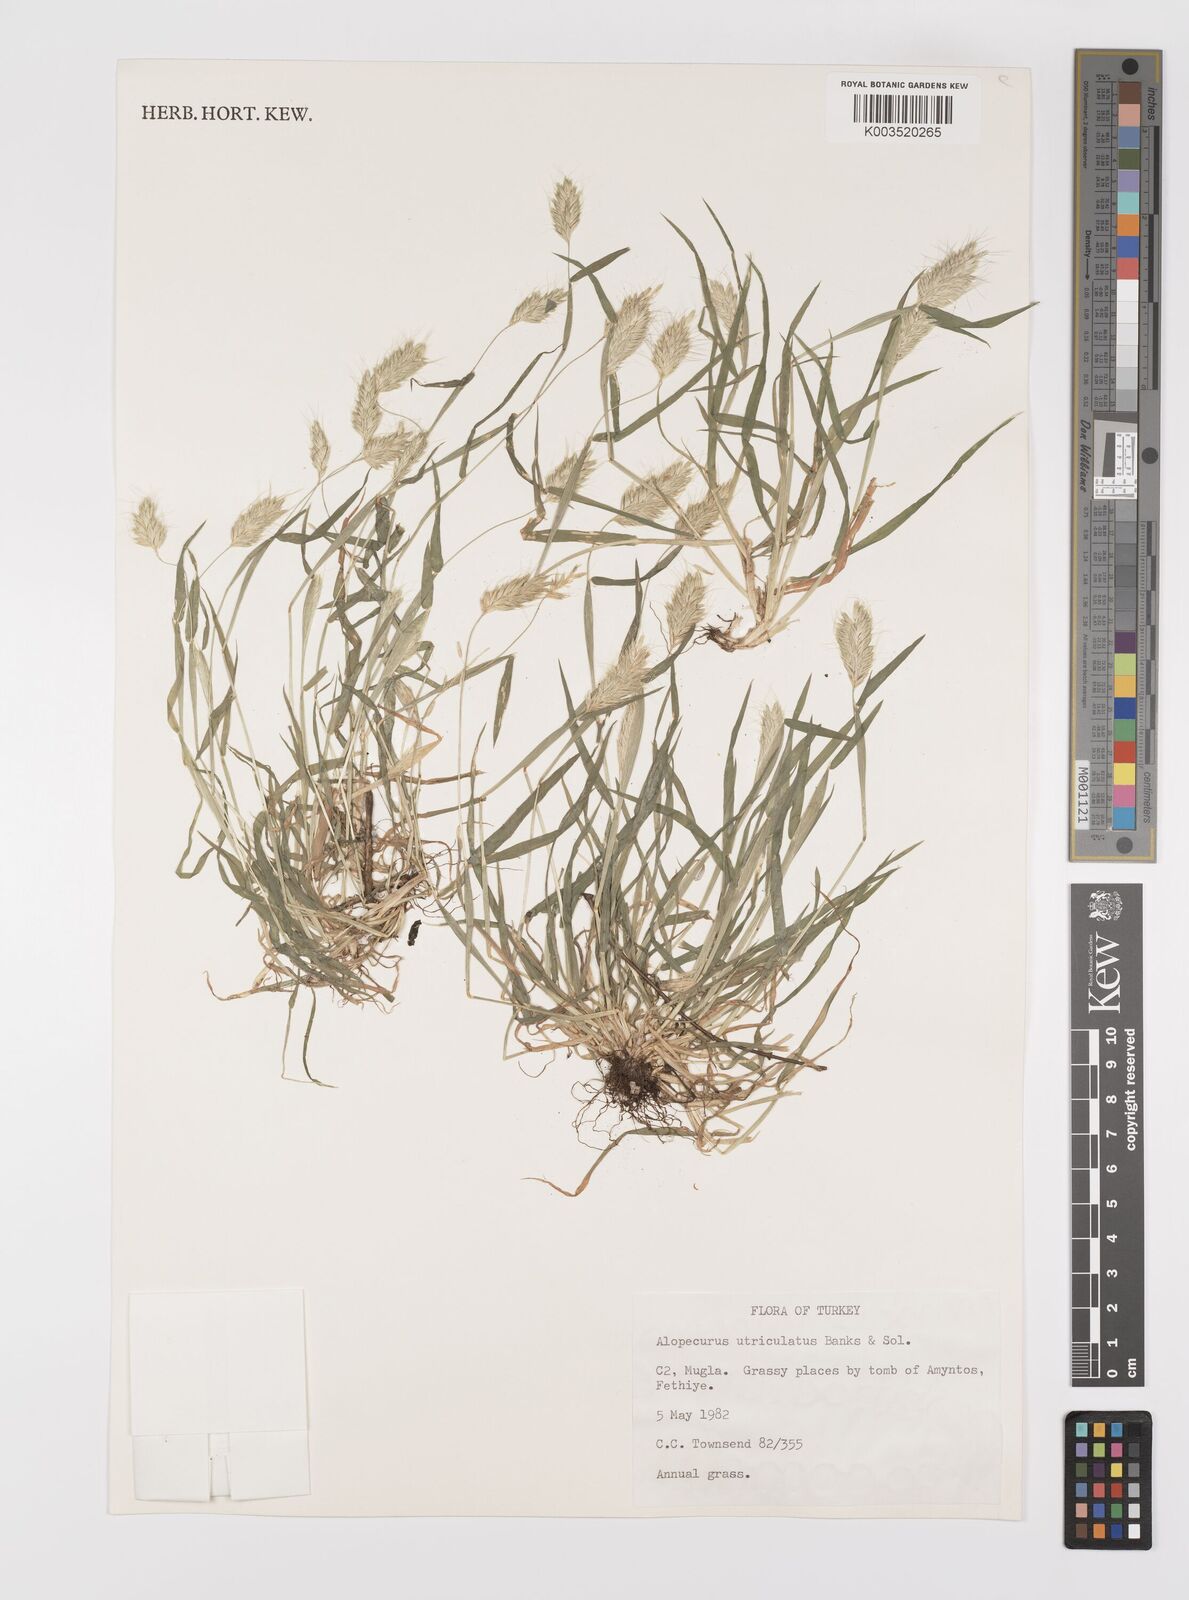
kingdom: Plantae
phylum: Tracheophyta
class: Liliopsida
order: Poales
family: Poaceae
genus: Alopecurus
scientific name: Alopecurus utriculatus
